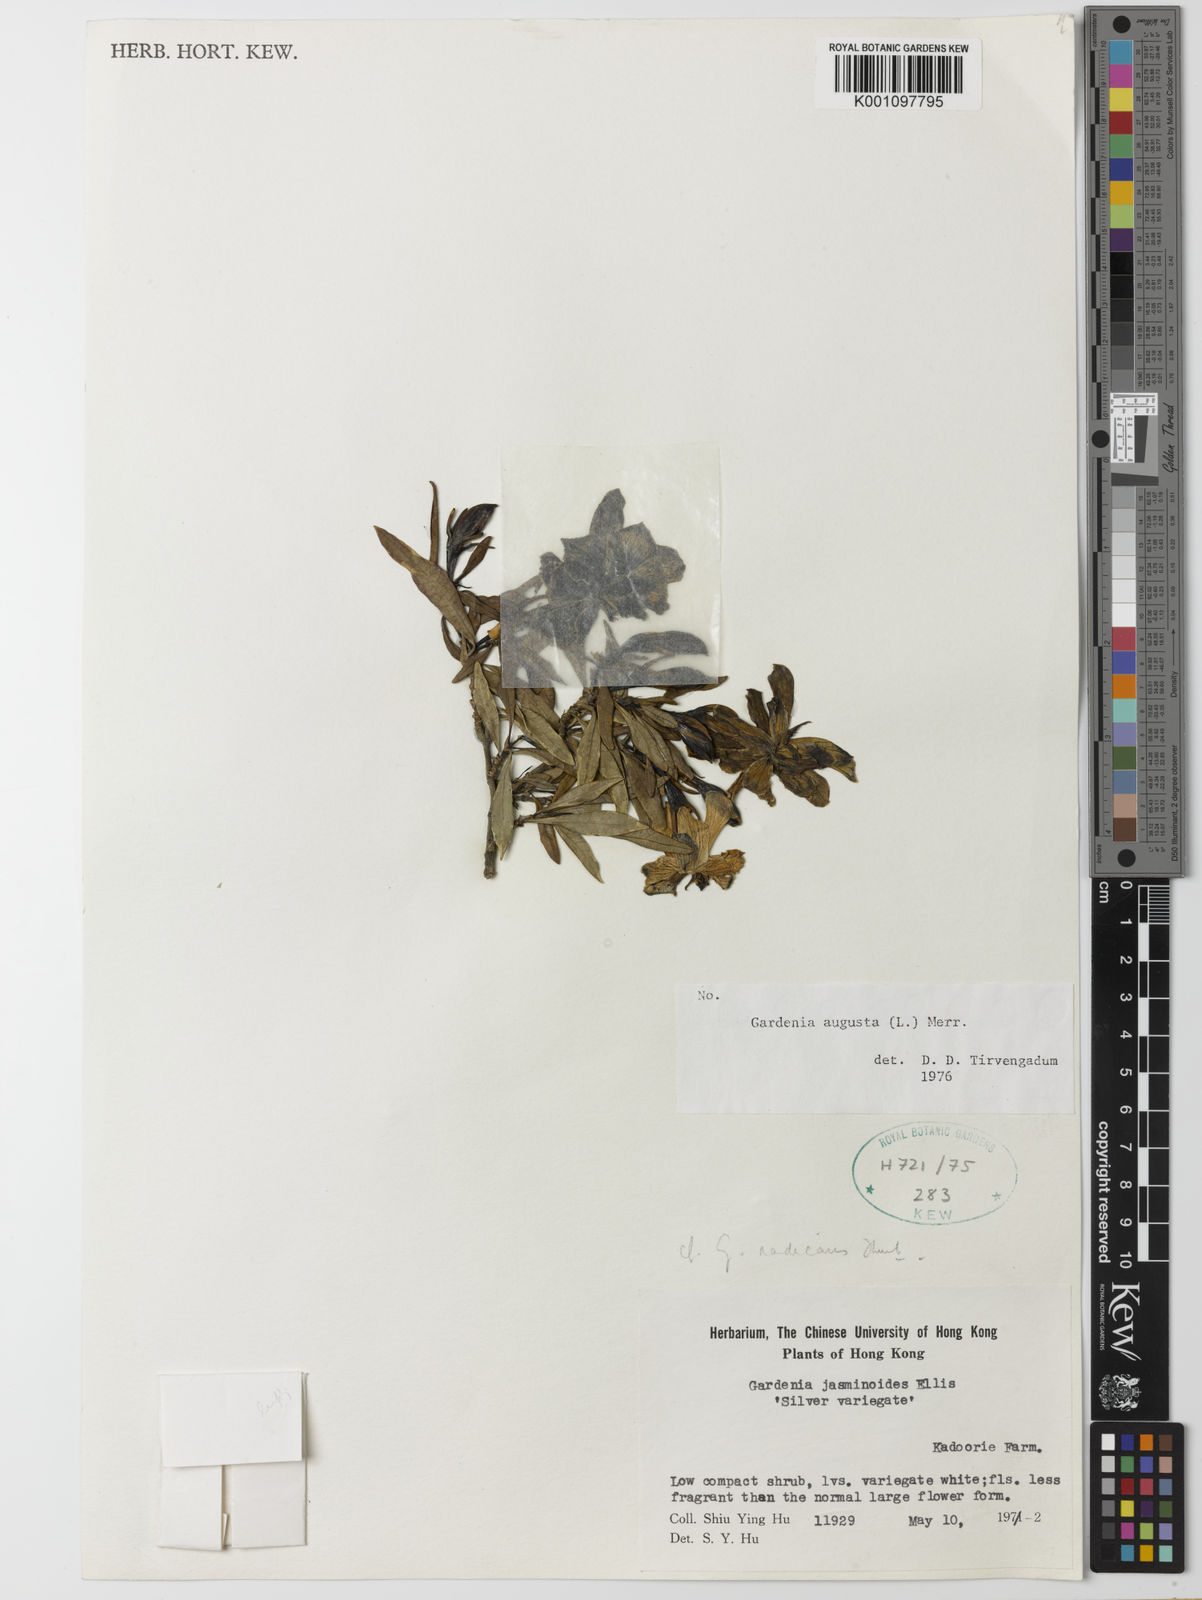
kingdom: Plantae
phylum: Tracheophyta
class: Magnoliopsida
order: Gentianales
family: Rubiaceae
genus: Gardenia
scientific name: Gardenia jasminoides
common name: Cape-jasmine
